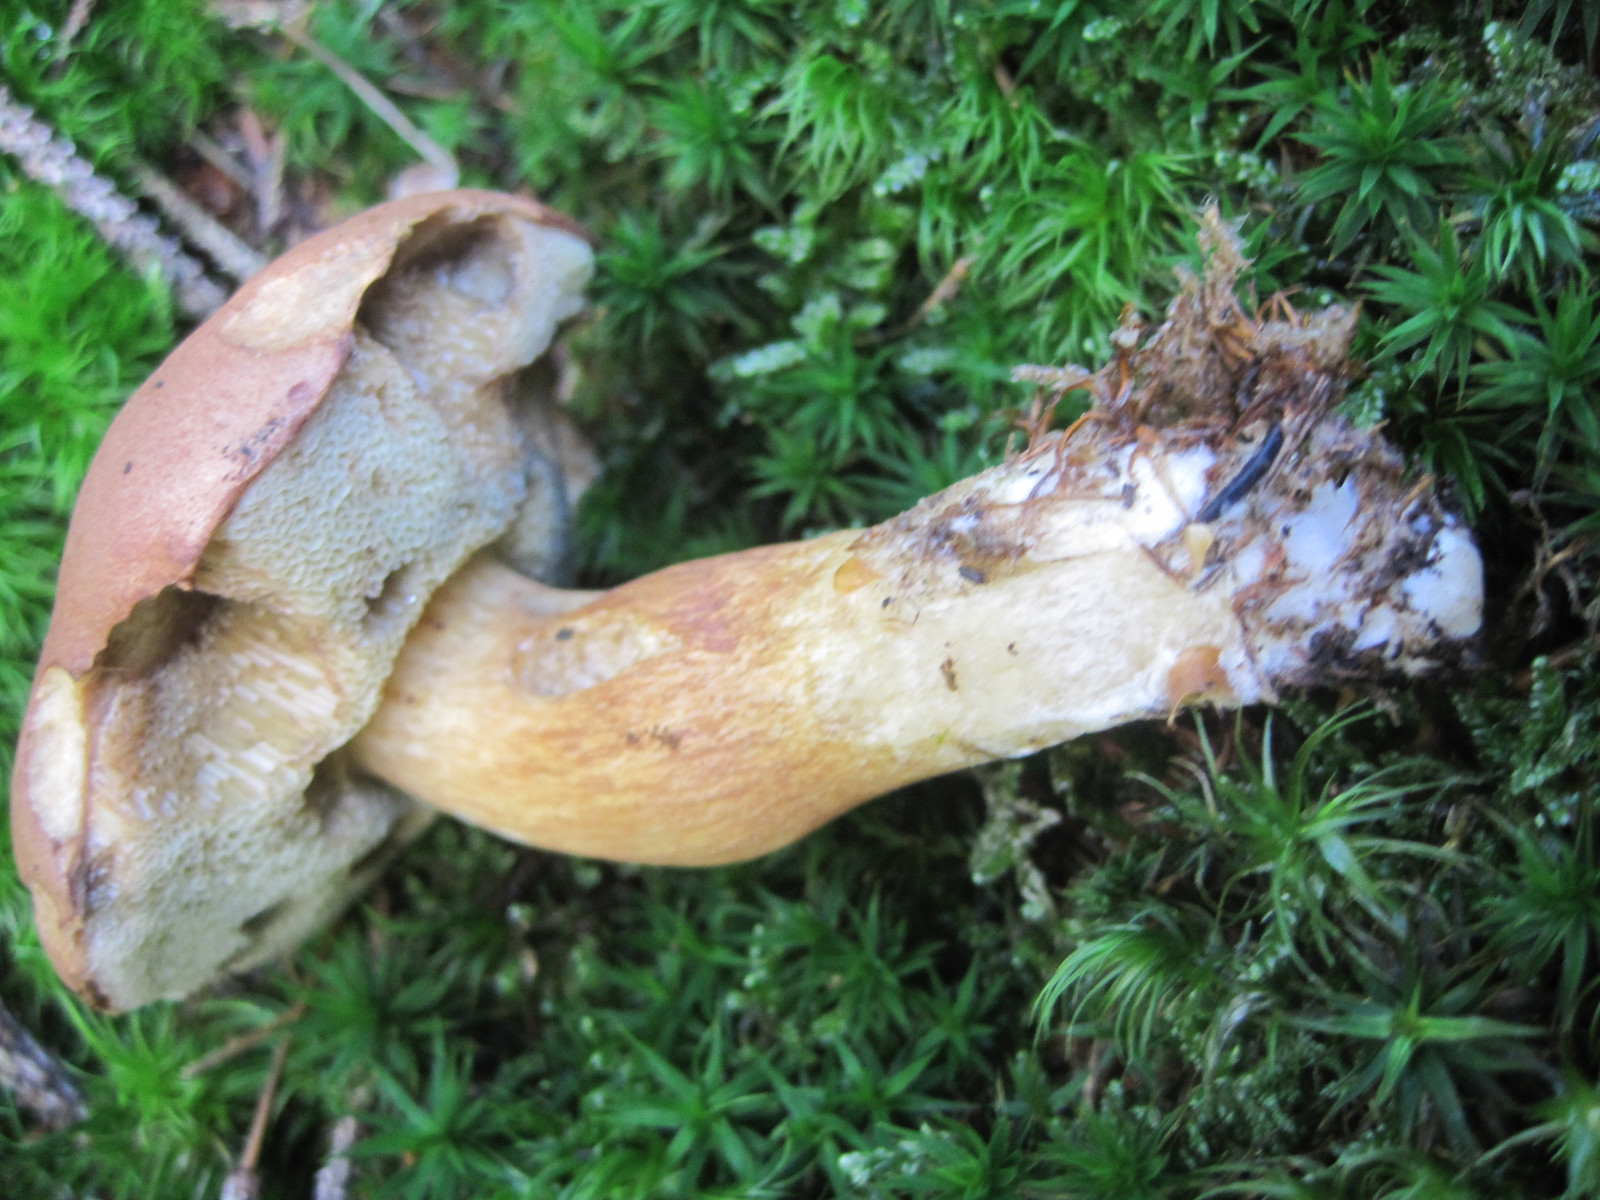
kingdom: Fungi
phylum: Basidiomycota
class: Agaricomycetes
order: Boletales
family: Boletaceae
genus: Imleria
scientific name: Imleria badia
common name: brunstokket rørhat
